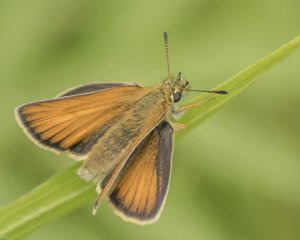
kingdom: Animalia
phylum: Arthropoda
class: Insecta
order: Lepidoptera
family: Hesperiidae
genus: Thymelicus
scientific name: Thymelicus lineola
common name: European Skipper
